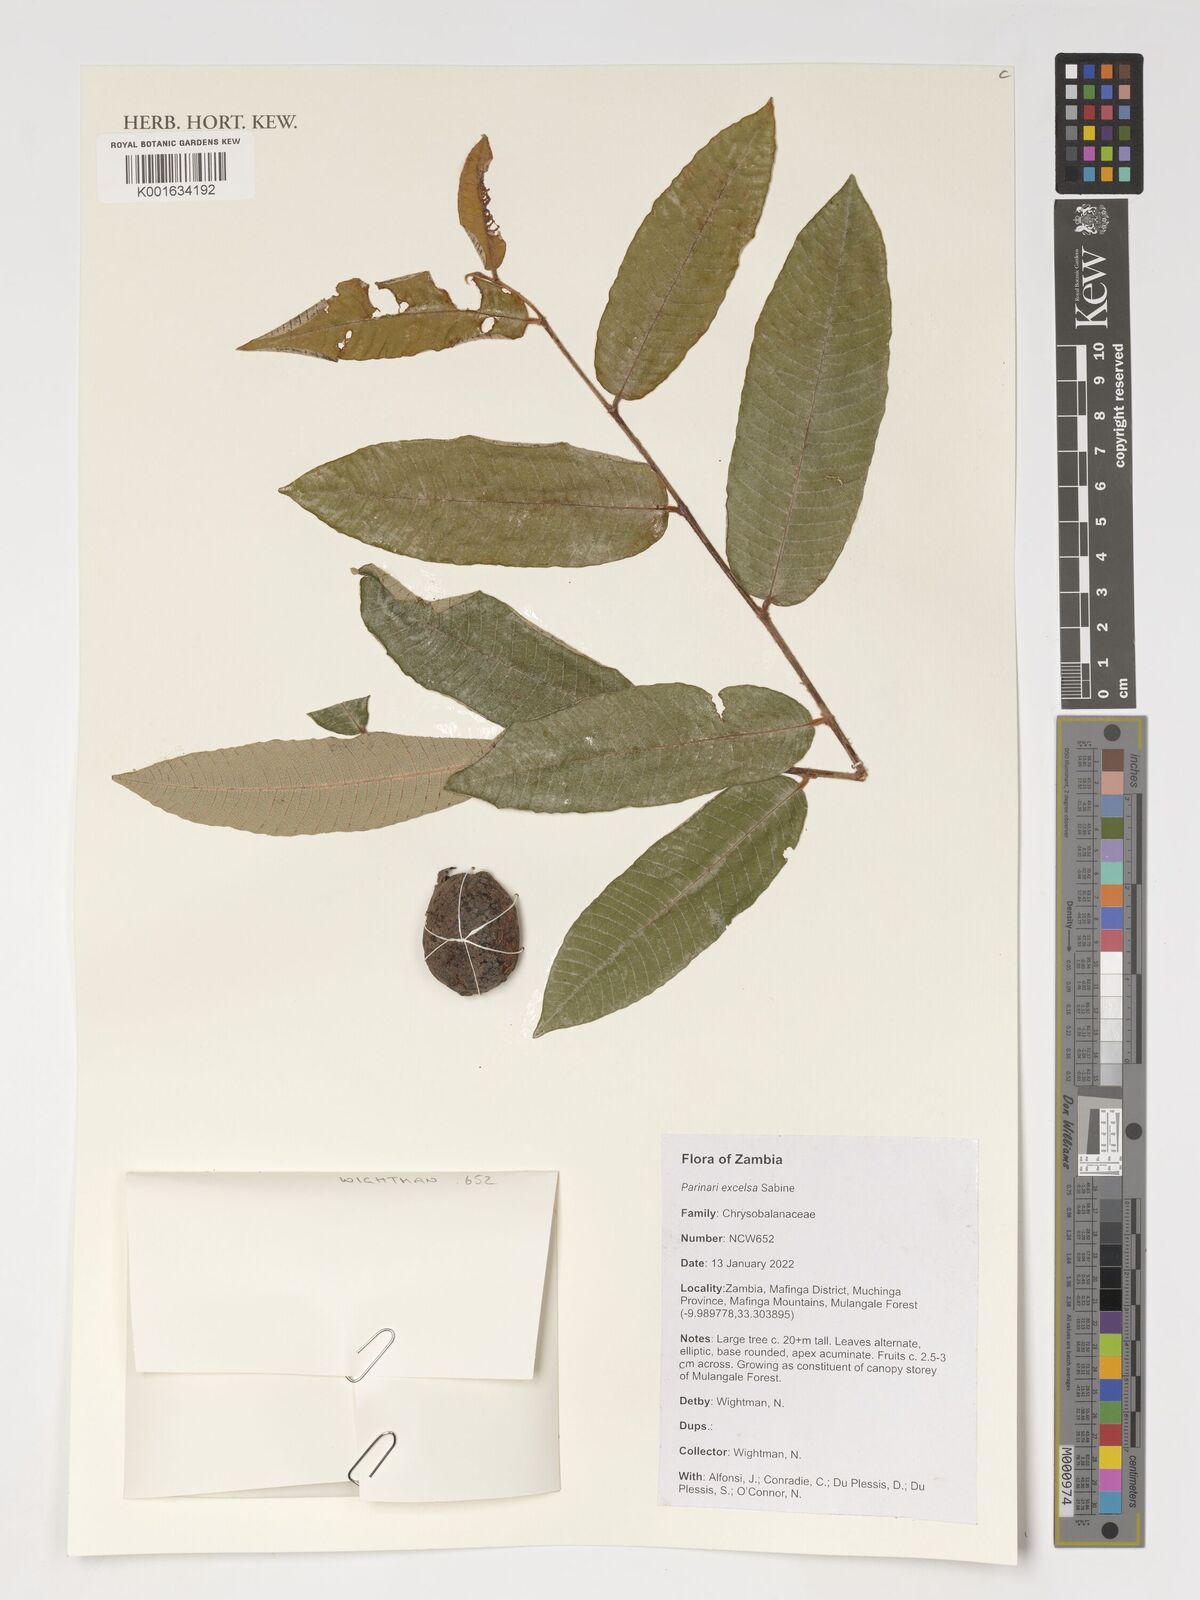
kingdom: Plantae
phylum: Tracheophyta
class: Magnoliopsida
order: Malpighiales
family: Chrysobalanaceae
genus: Parinari
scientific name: Parinari excelsa
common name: Guinea-plum
